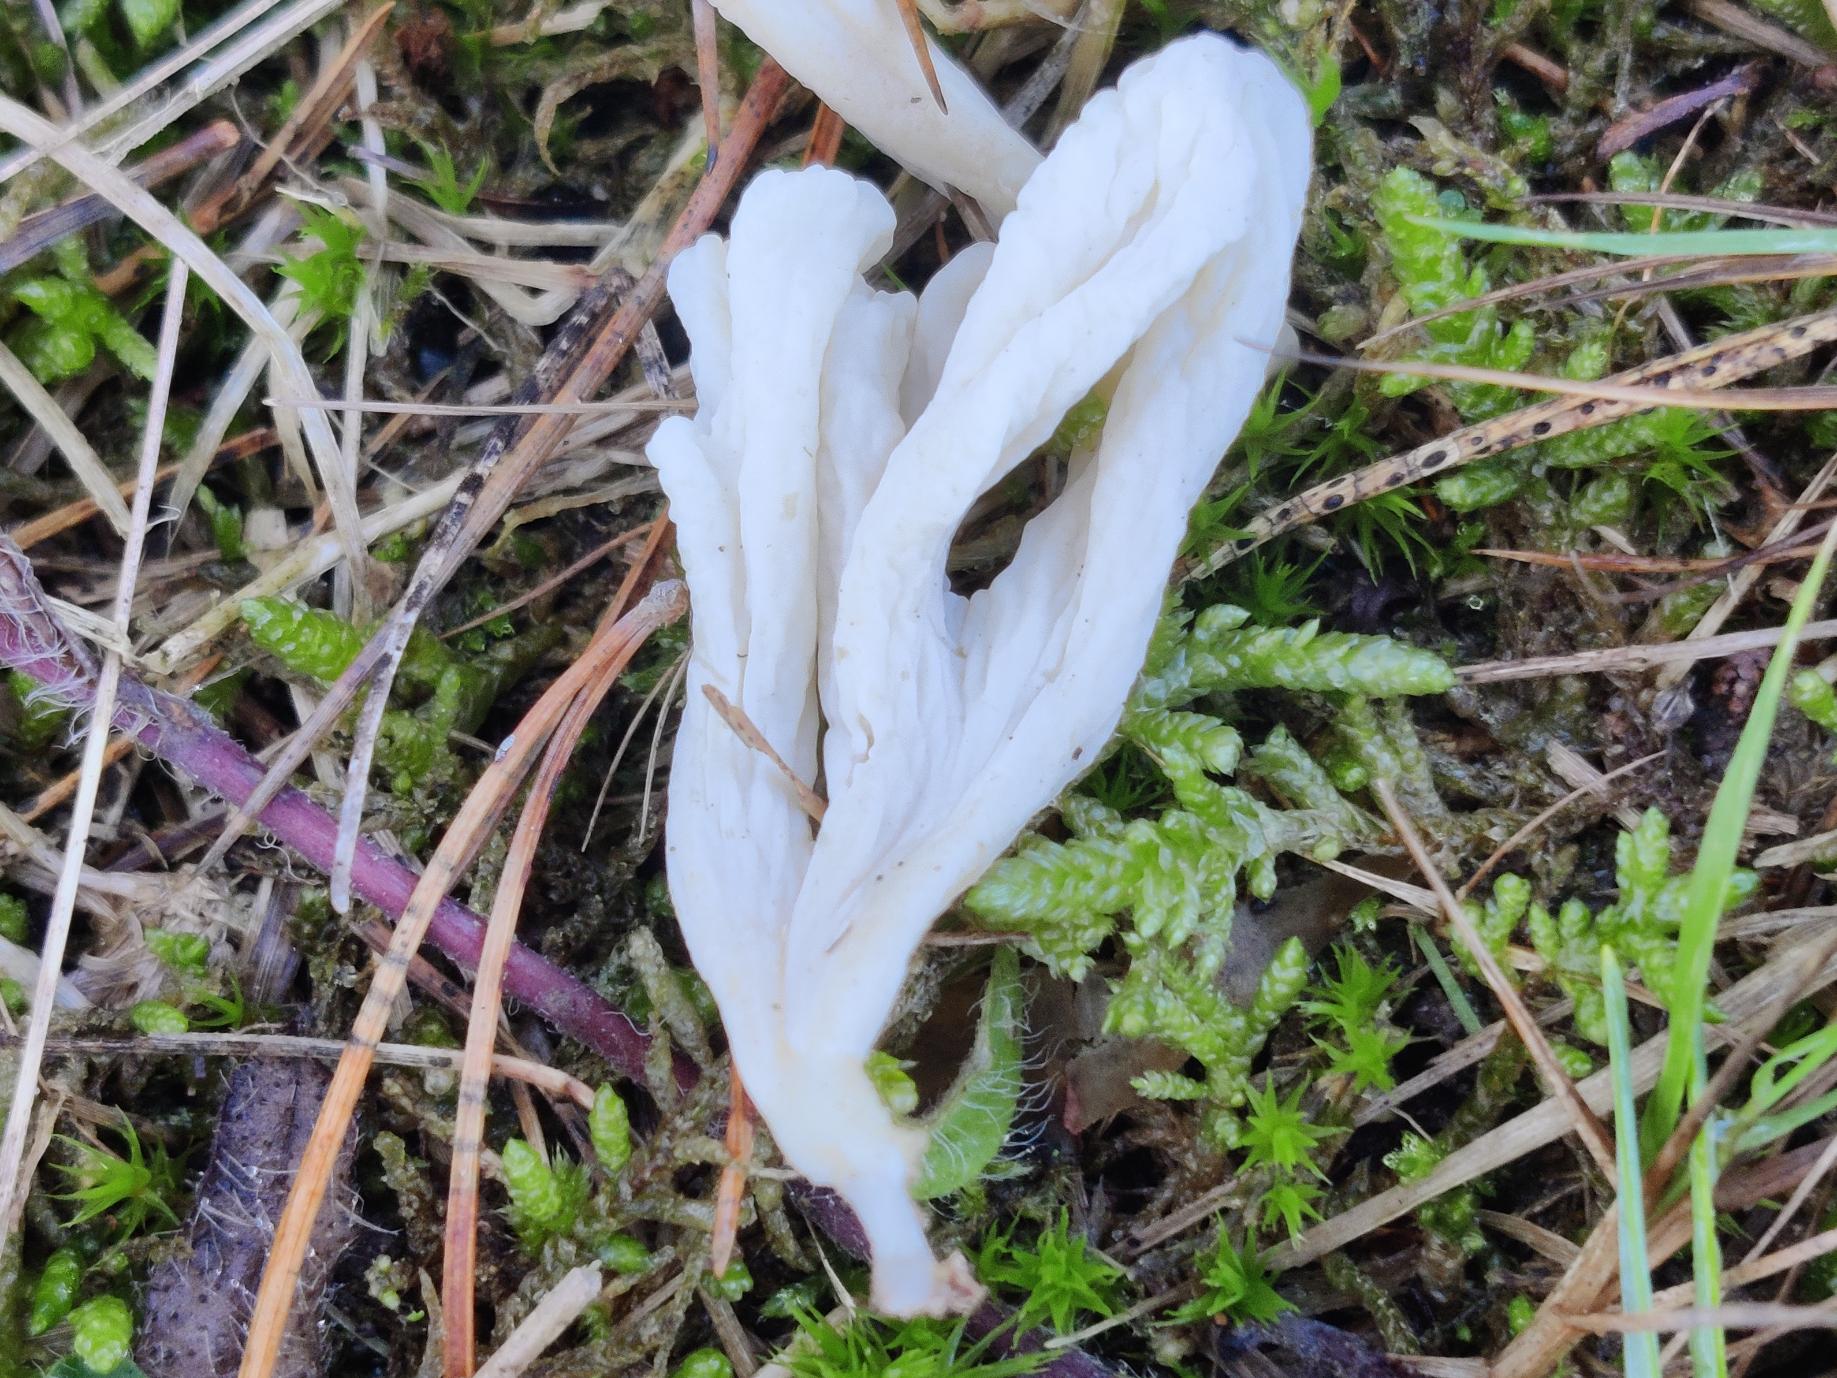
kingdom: Fungi
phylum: Basidiomycota
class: Agaricomycetes
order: Cantharellales
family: Hydnaceae
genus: Clavulina
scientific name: Clavulina rugosa
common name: Rynket troldkølle
